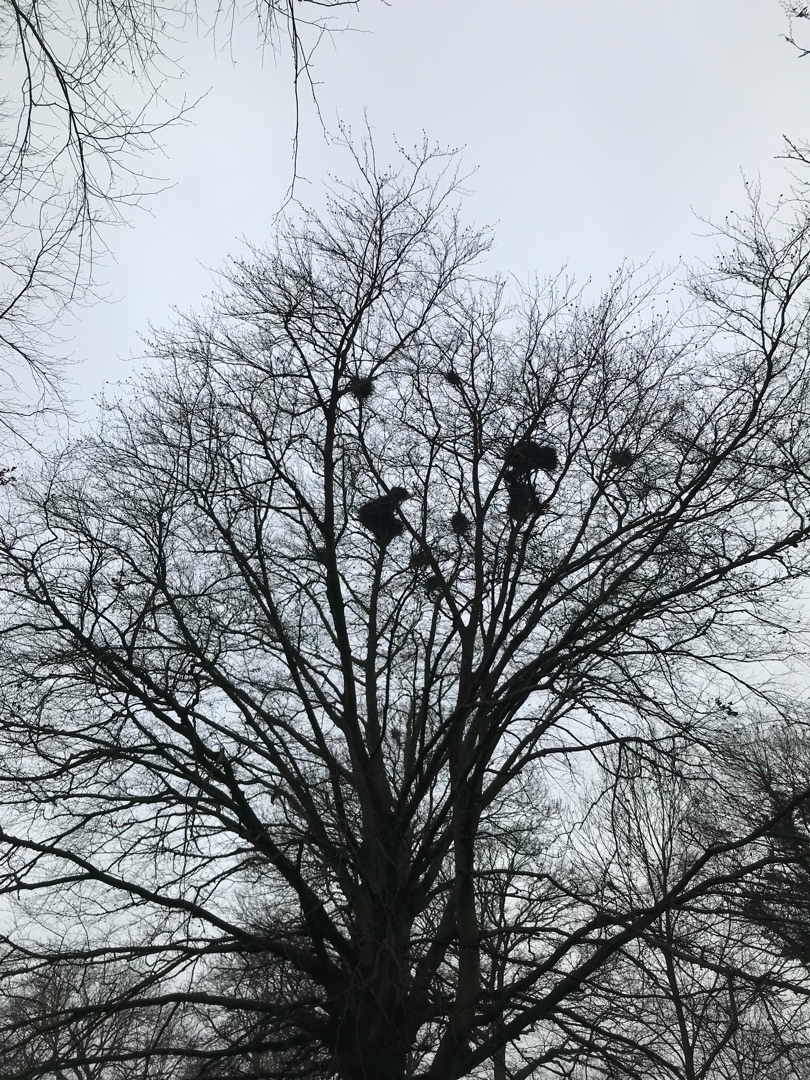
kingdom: Animalia
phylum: Chordata
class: Aves
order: Passeriformes
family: Corvidae
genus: Corvus
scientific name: Corvus frugilegus
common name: Råge
